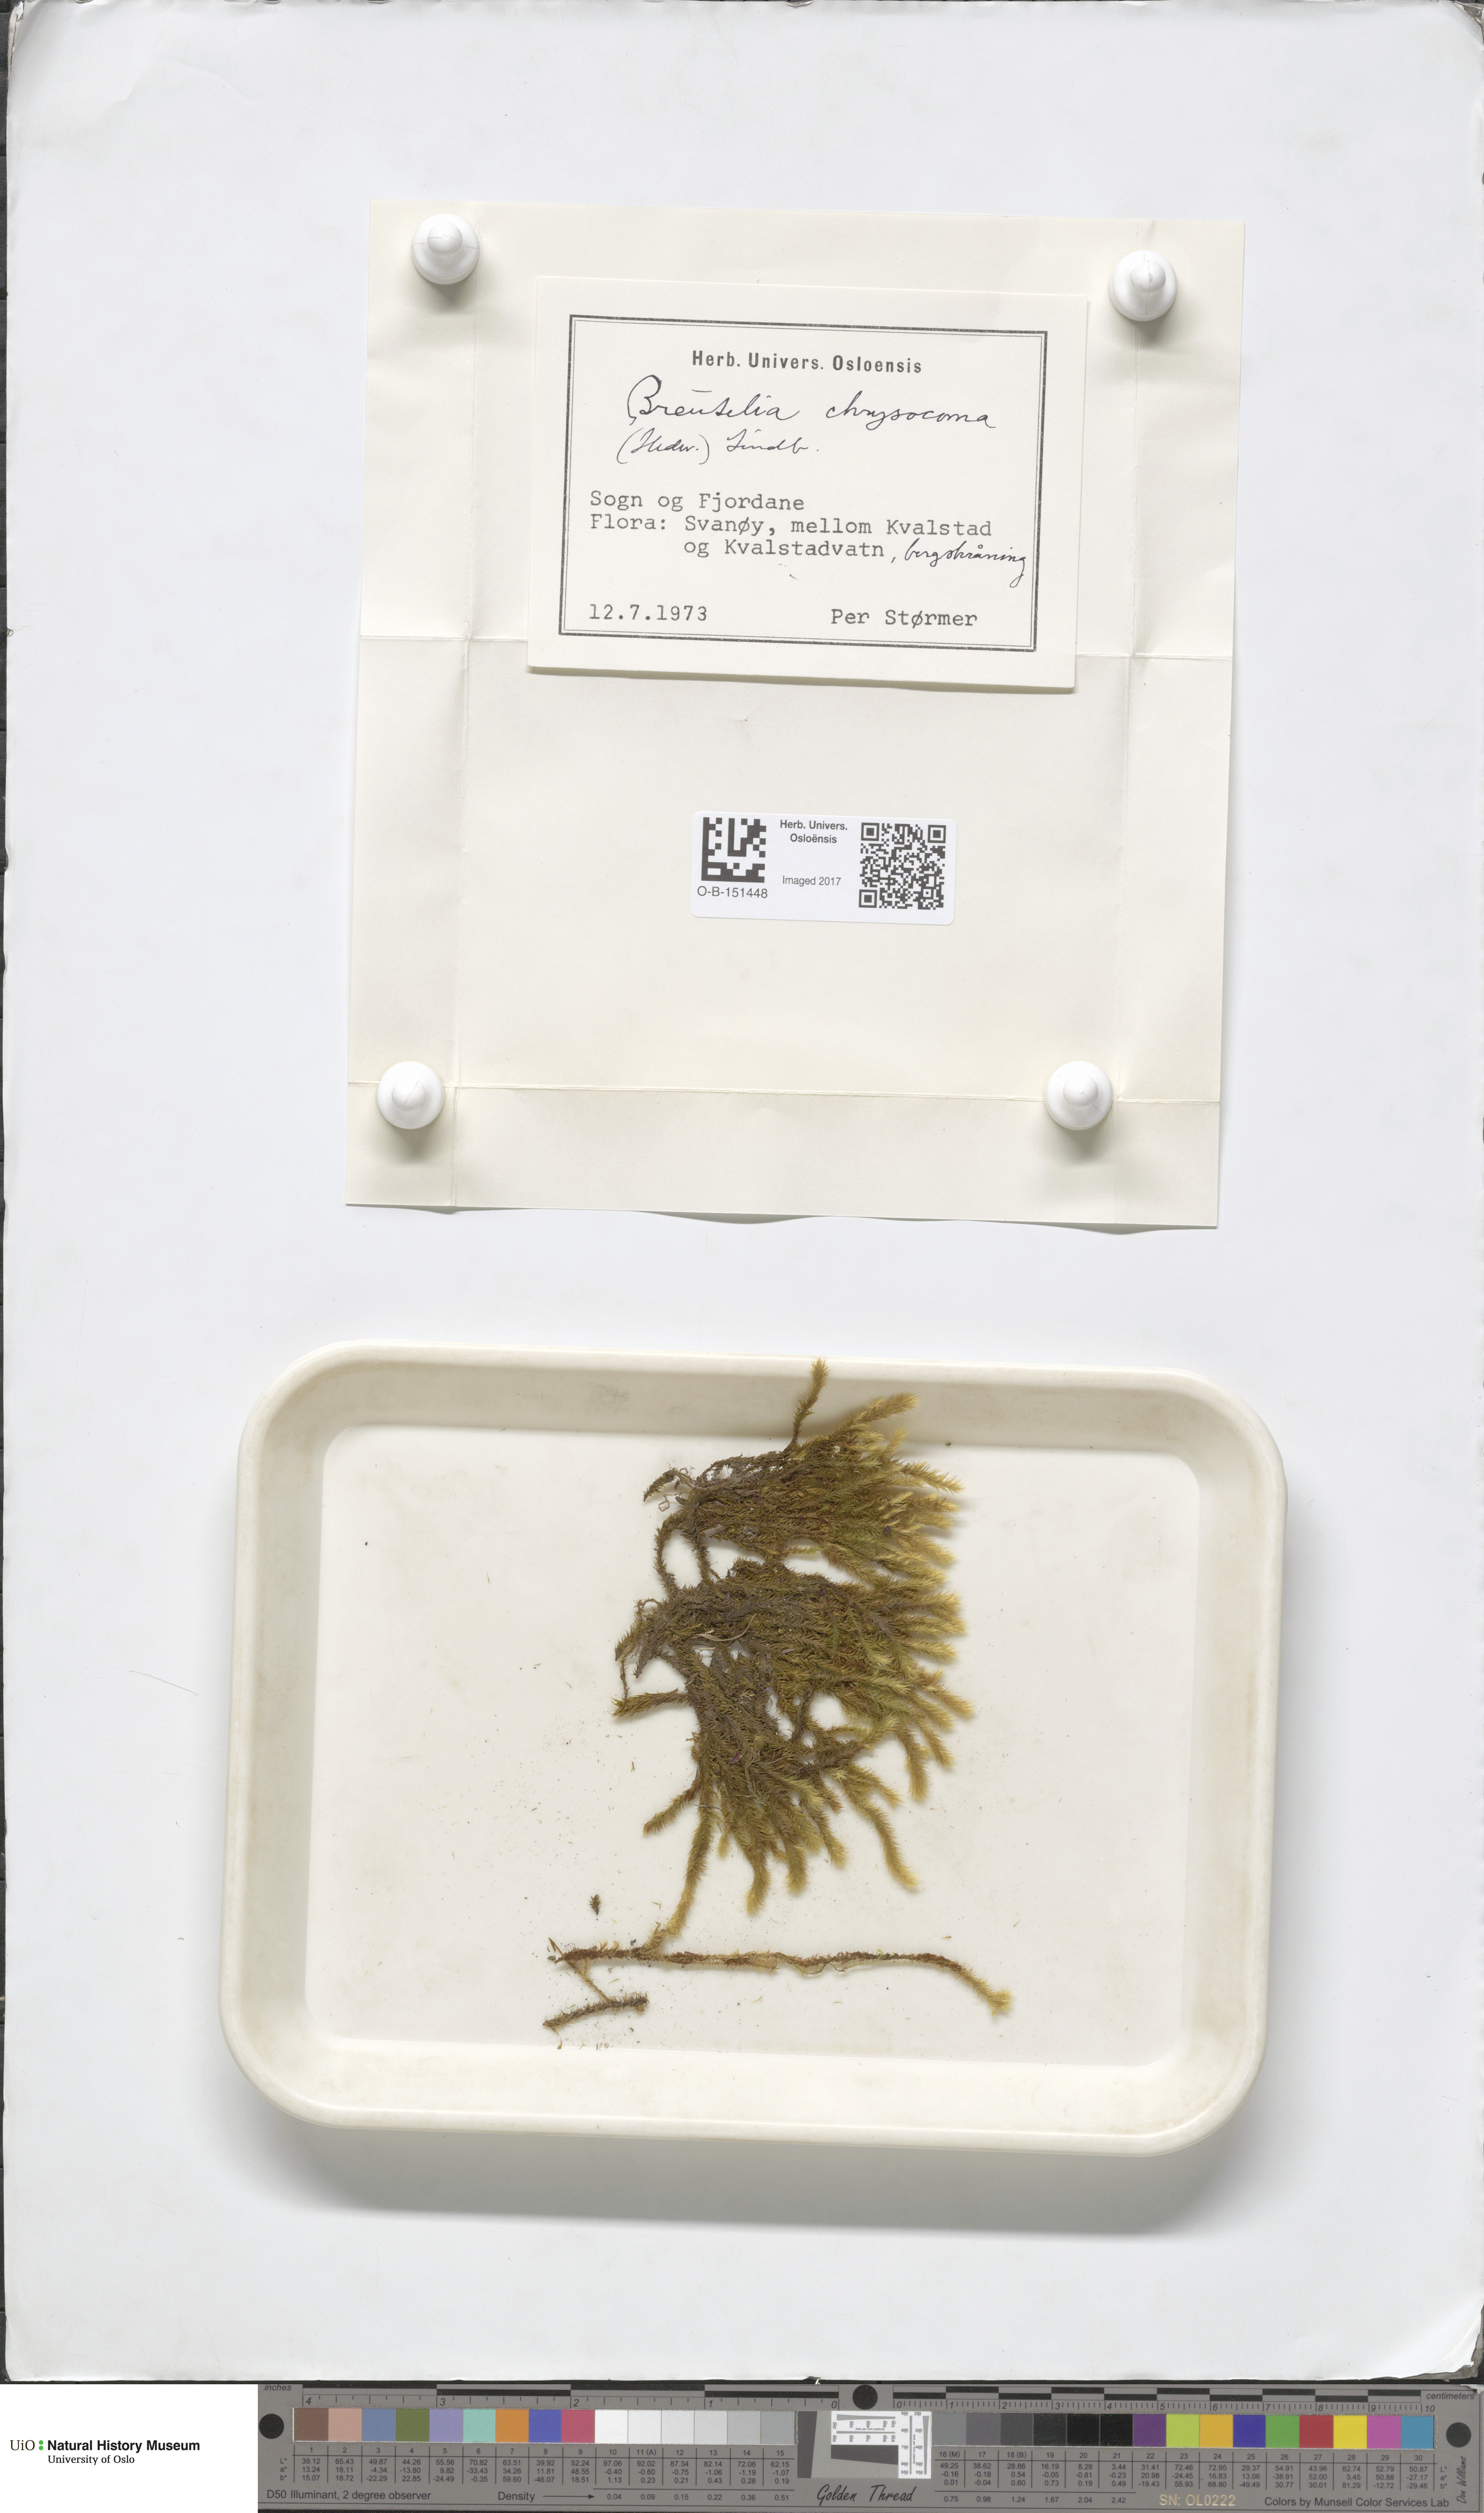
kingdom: Plantae
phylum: Bryophyta
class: Bryopsida
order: Bartramiales
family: Bartramiaceae
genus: Breutelia
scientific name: Breutelia chrysocoma
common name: Bottle-brush moss
